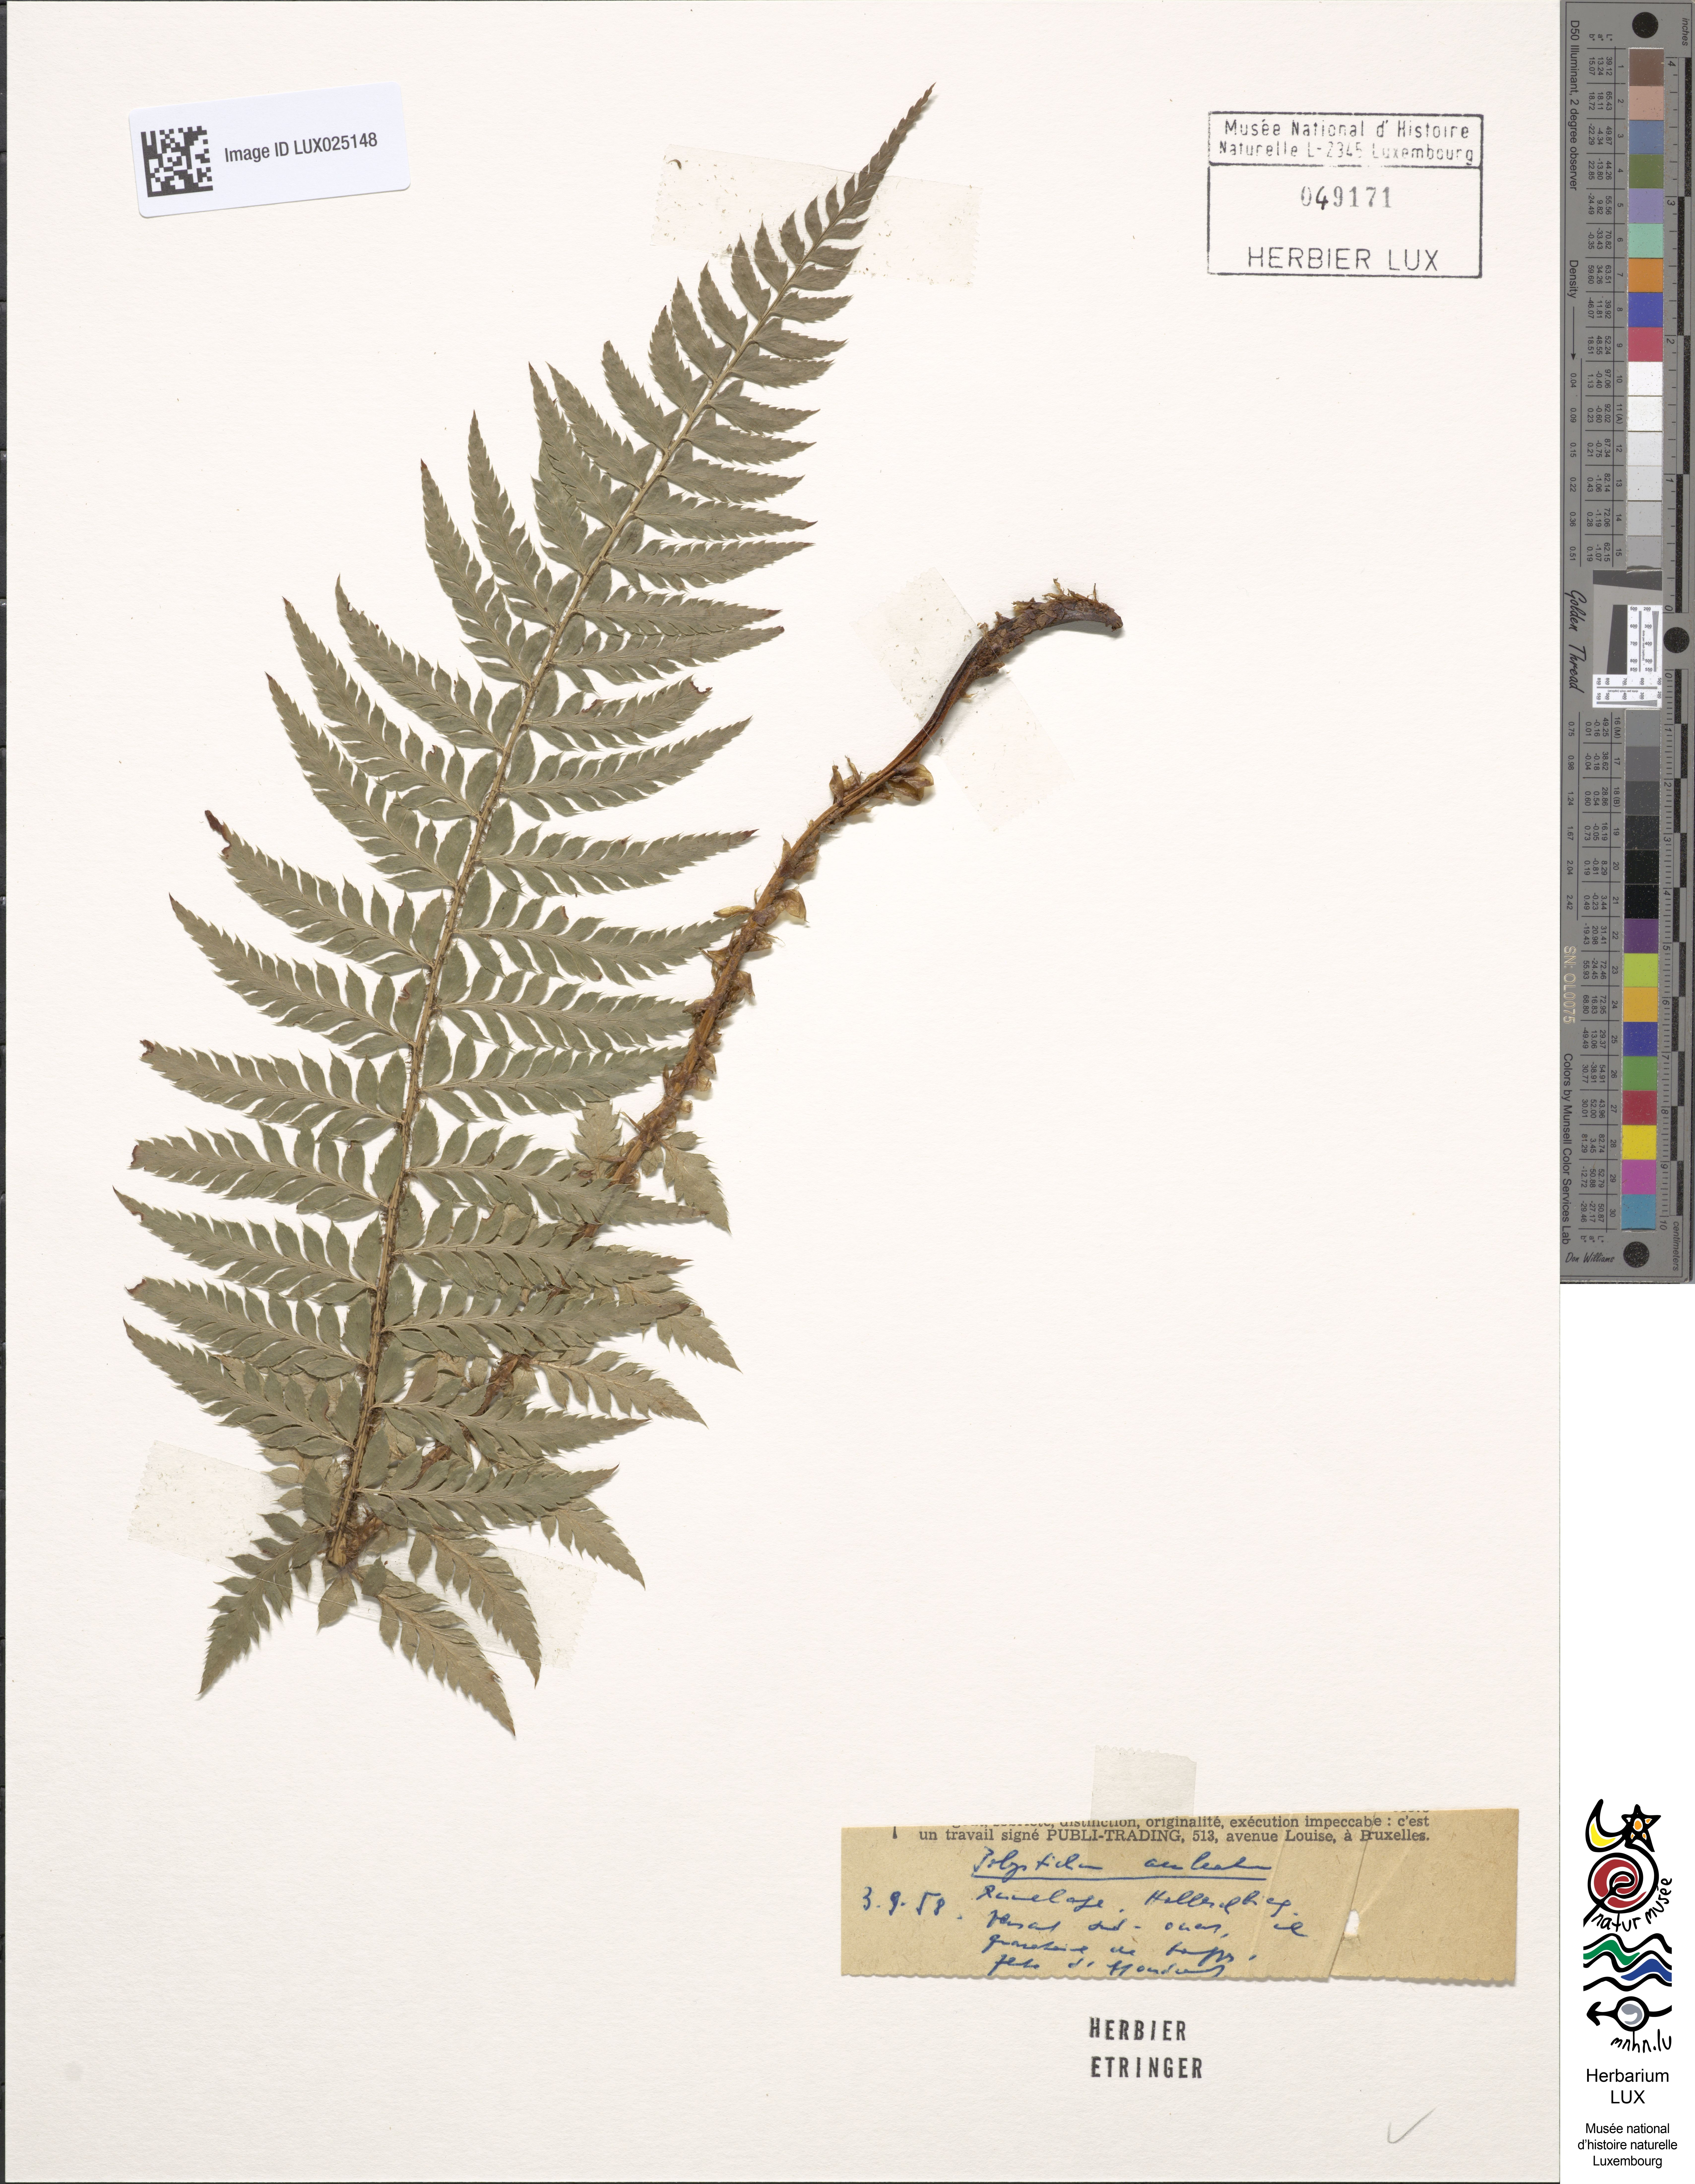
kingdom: Plantae
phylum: Tracheophyta
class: Polypodiopsida
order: Polypodiales
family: Dryopteridaceae
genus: Polystichum
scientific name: Polystichum aculeatum
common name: Hard shield-fern
